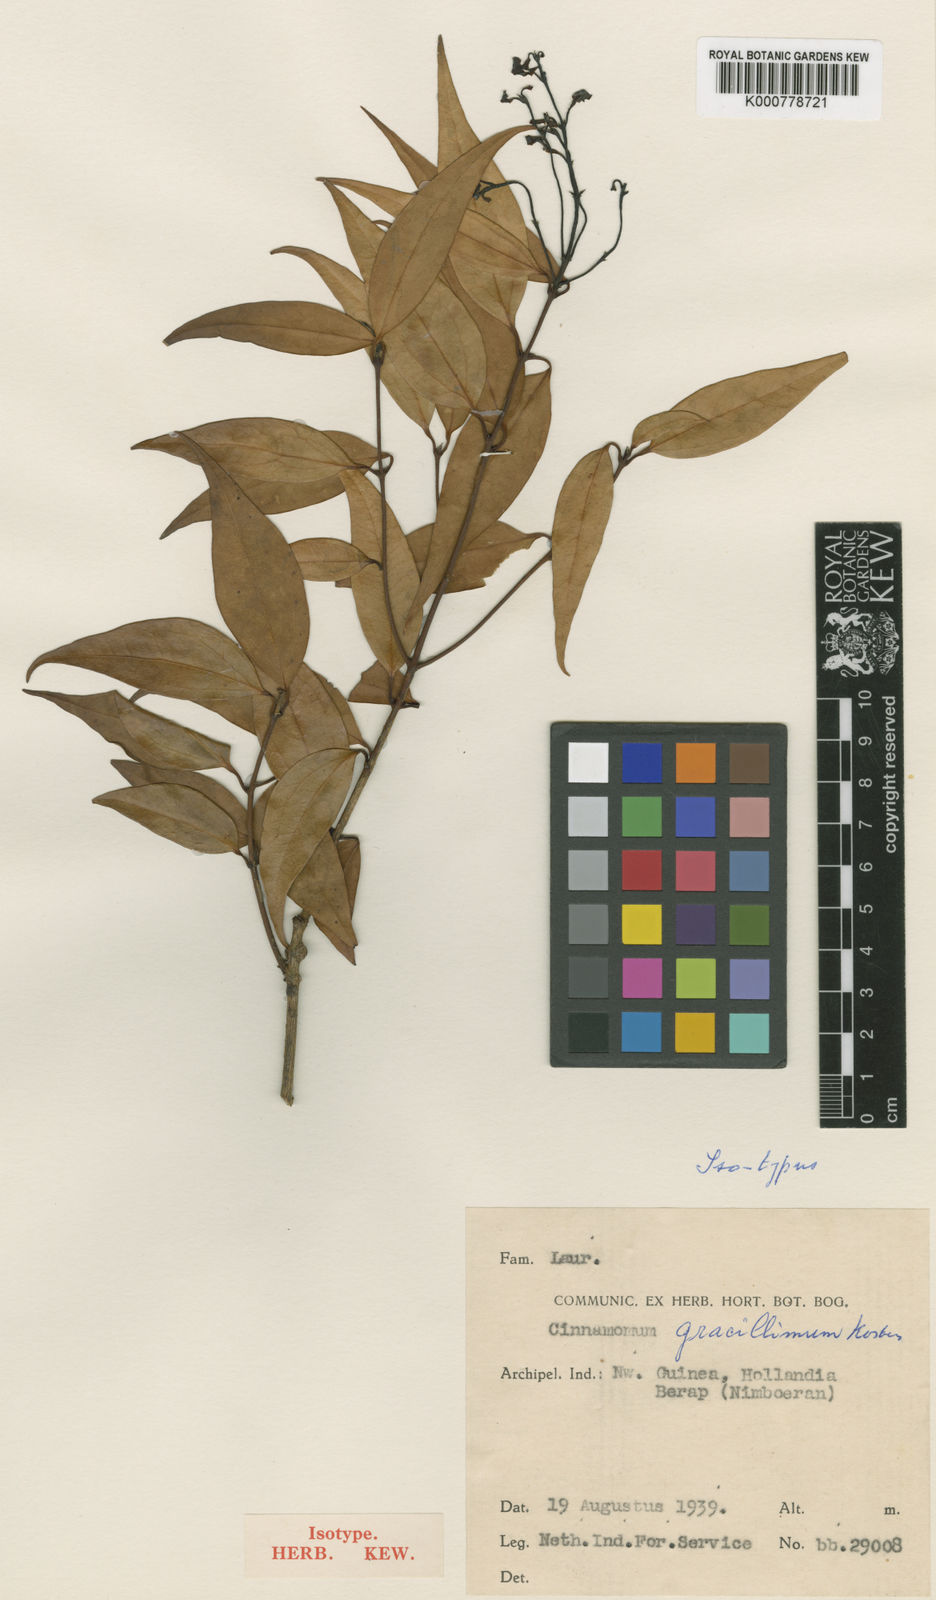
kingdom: Plantae
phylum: Tracheophyta
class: Magnoliopsida
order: Laurales
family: Lauraceae
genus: Cinnamomum
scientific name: Cinnamomum gracillimum
